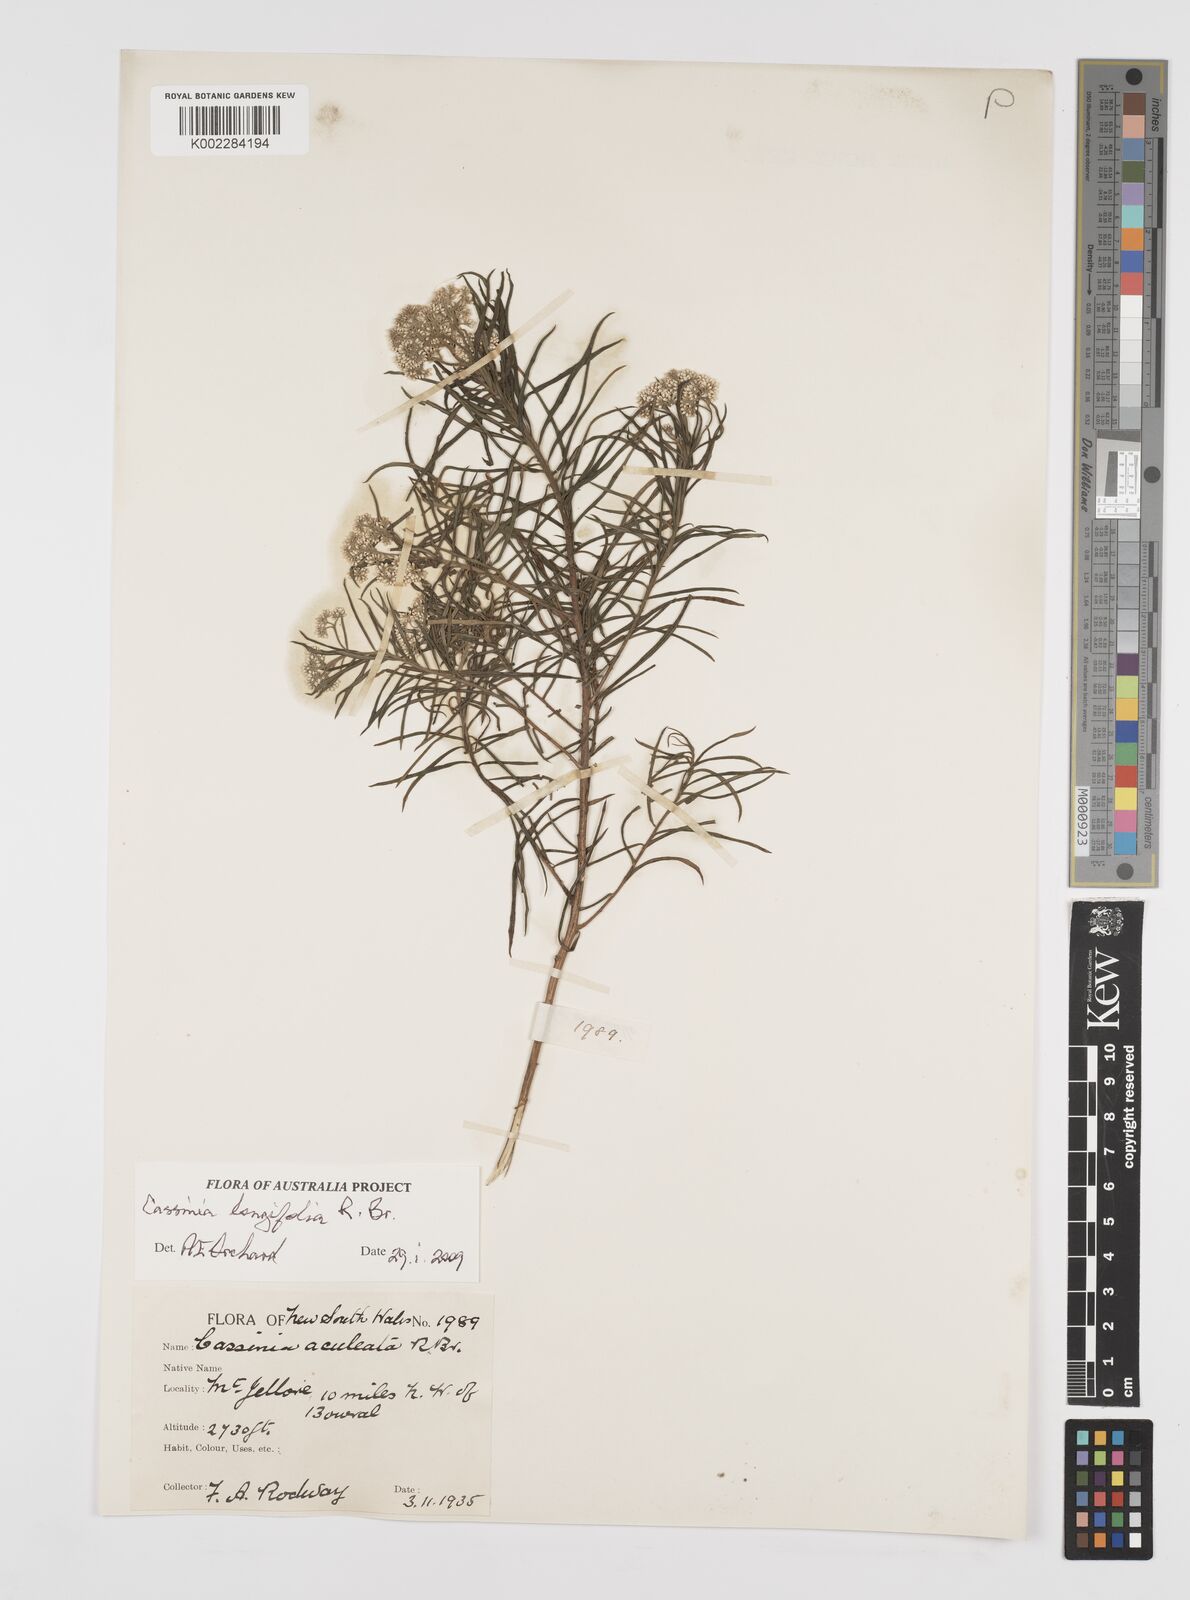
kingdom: Plantae
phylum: Tracheophyta
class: Magnoliopsida
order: Asterales
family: Asteraceae
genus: Cassinia
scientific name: Cassinia longifolia
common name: Longleaf-dogwood
